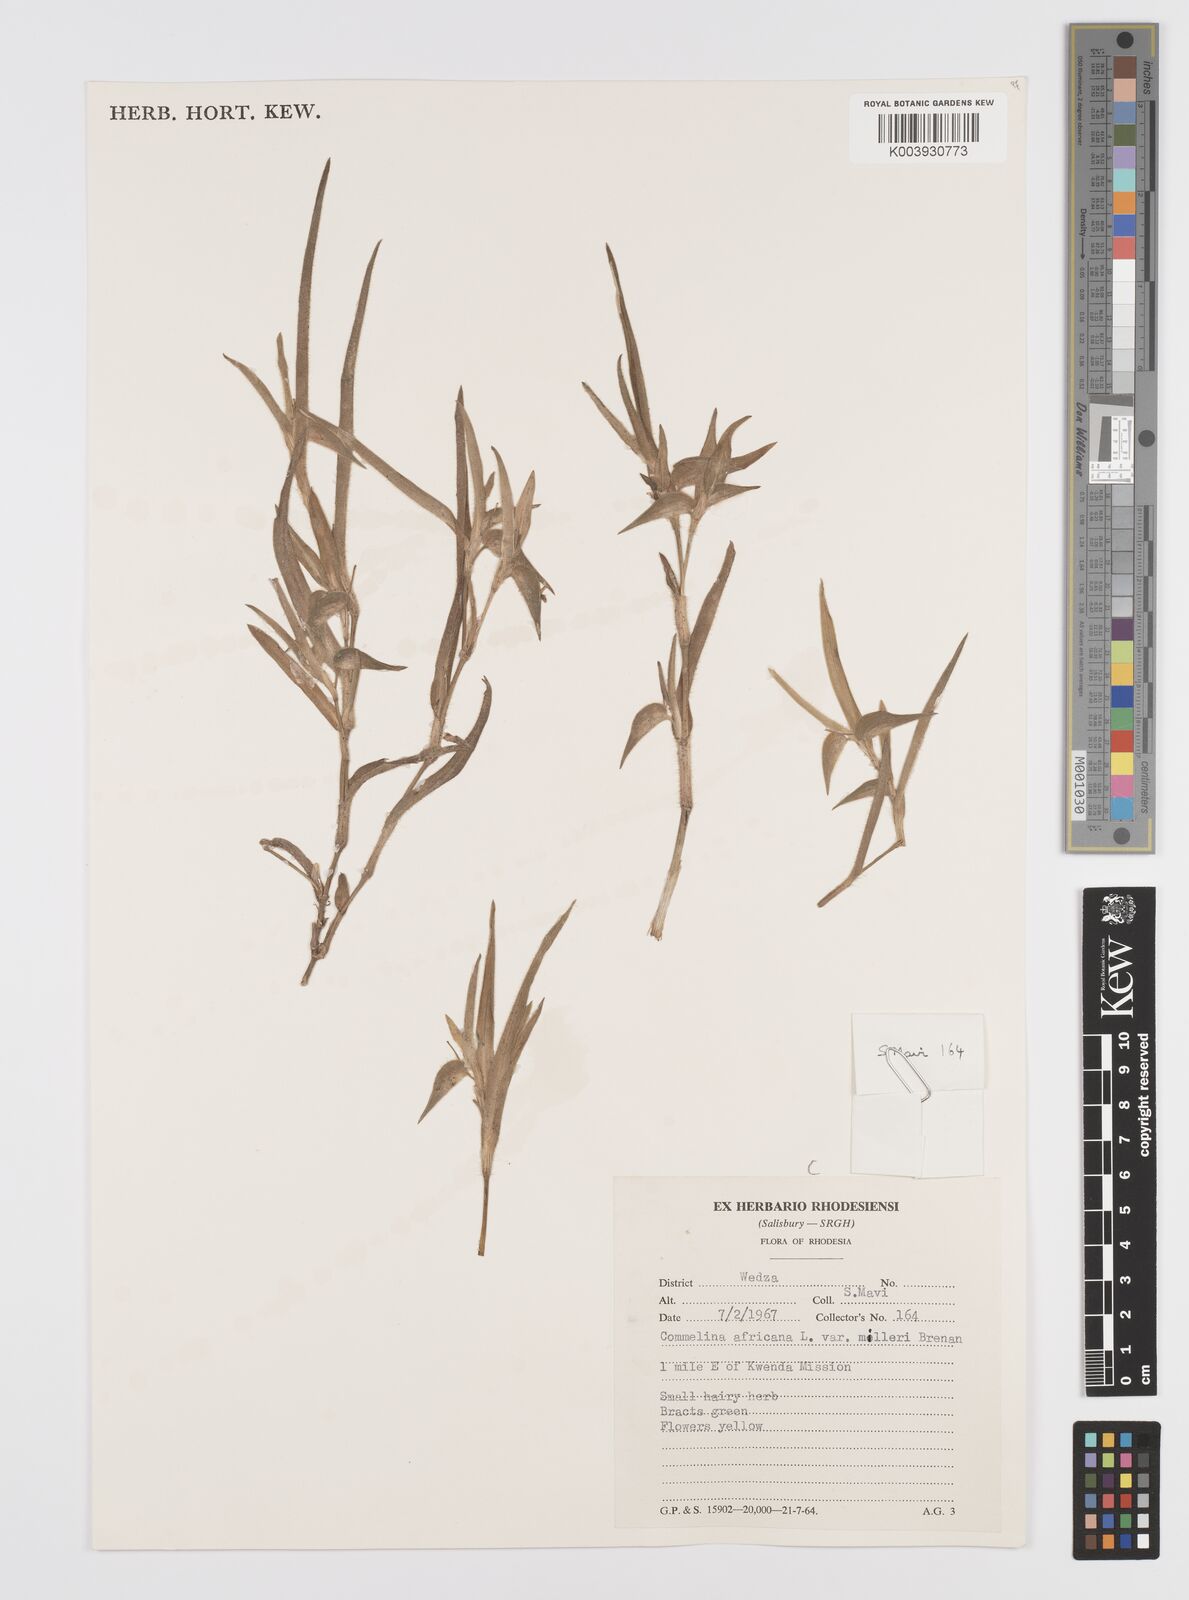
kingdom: Plantae
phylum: Tracheophyta
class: Liliopsida
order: Commelinales
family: Commelinaceae
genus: Commelina
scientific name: Commelina africana
